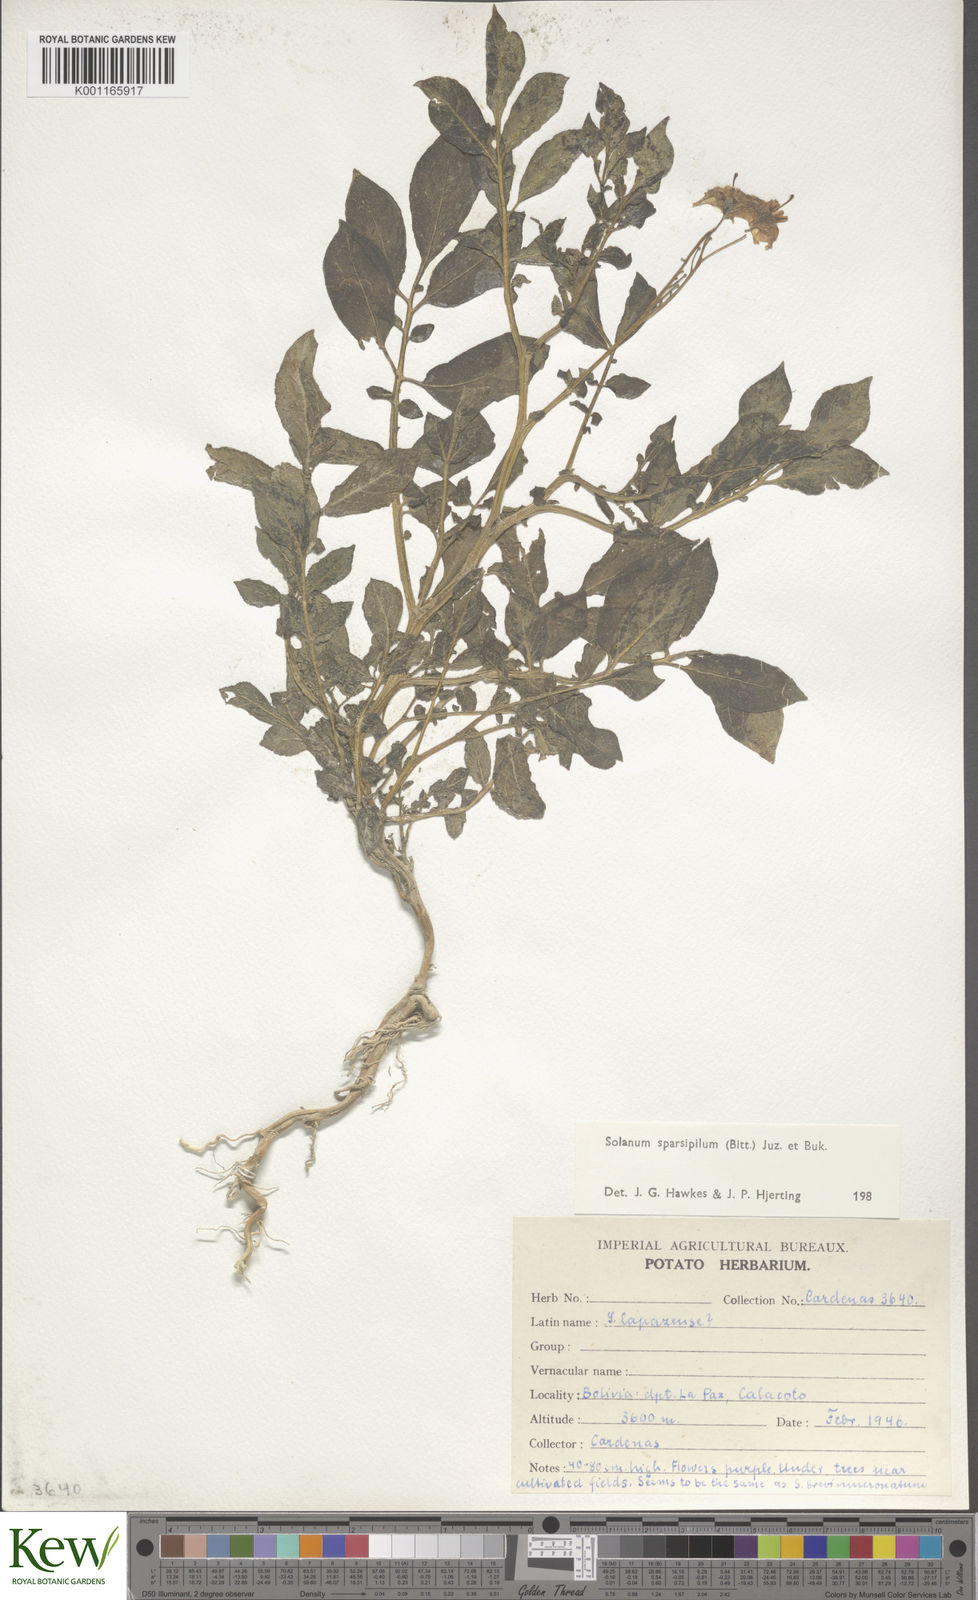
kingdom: Plantae
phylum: Tracheophyta
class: Magnoliopsida
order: Solanales
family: Solanaceae
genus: Solanum
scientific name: Solanum brevicaule
